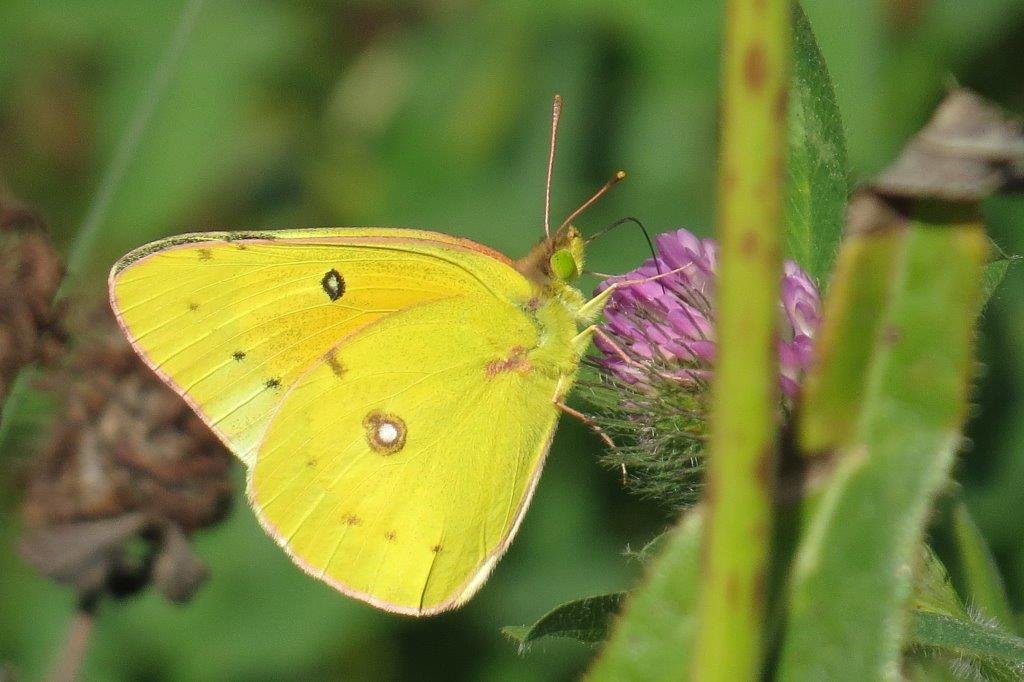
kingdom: Animalia
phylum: Arthropoda
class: Insecta
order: Lepidoptera
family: Pieridae
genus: Colias
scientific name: Colias eurytheme
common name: Orange Sulphur
